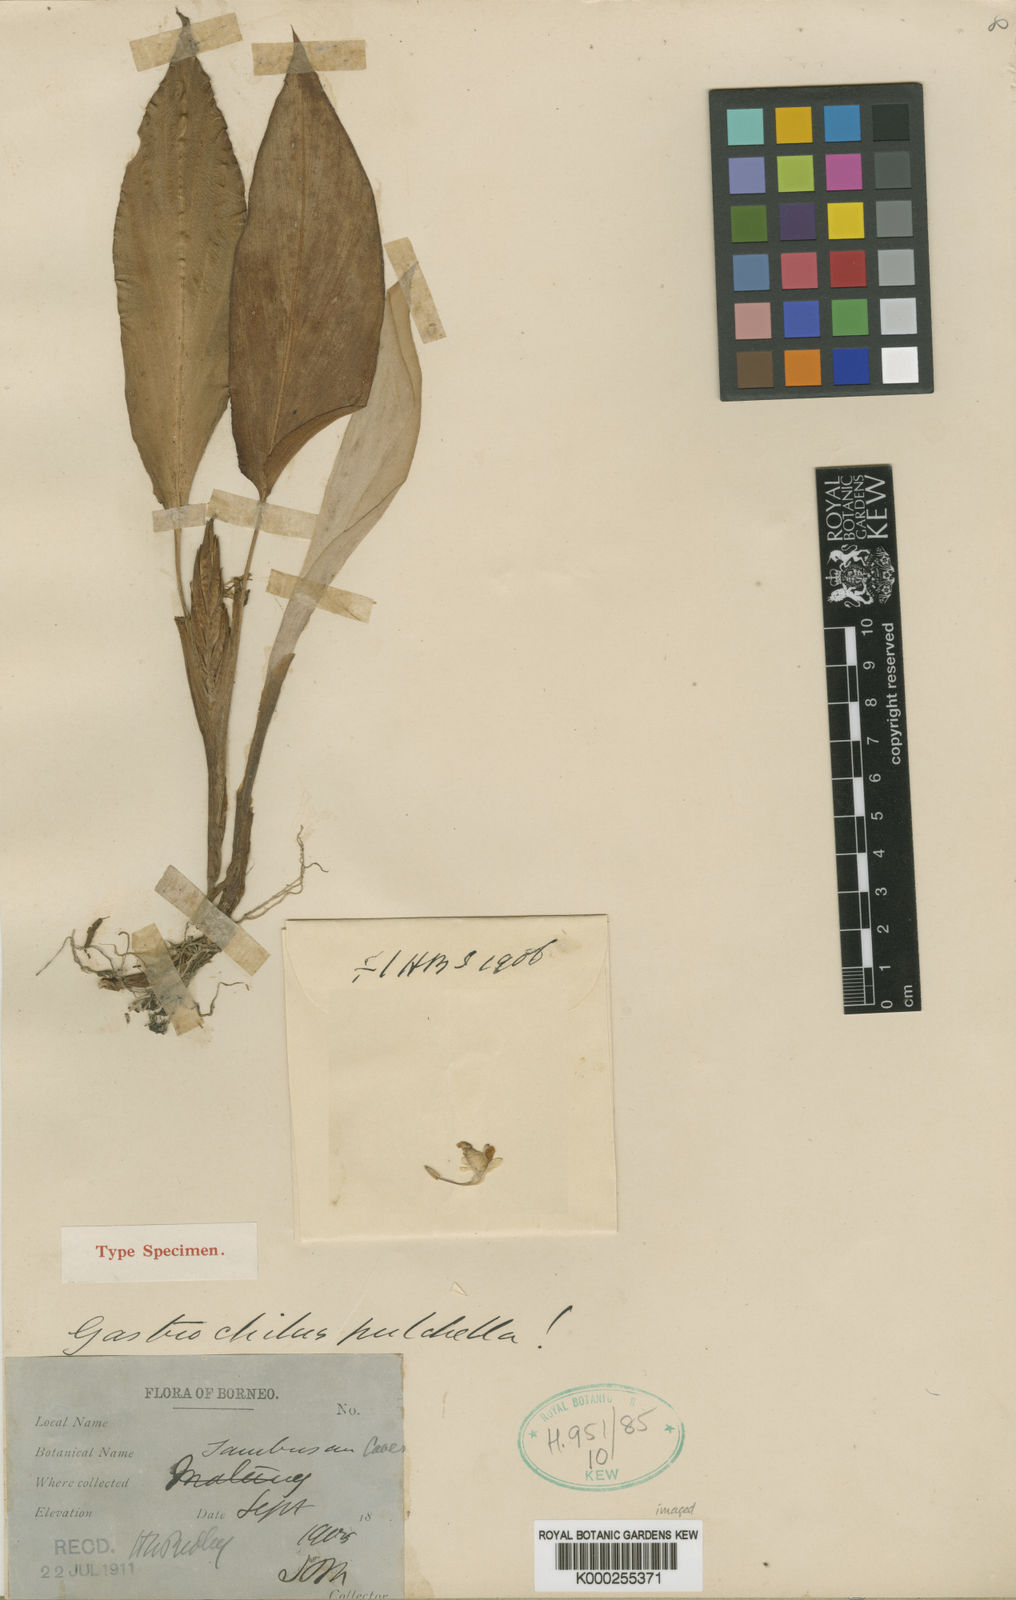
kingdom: Plantae
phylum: Tracheophyta
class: Liliopsida
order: Zingiberales
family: Zingiberaceae
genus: Boesenbergia
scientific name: Boesenbergia pulchella
